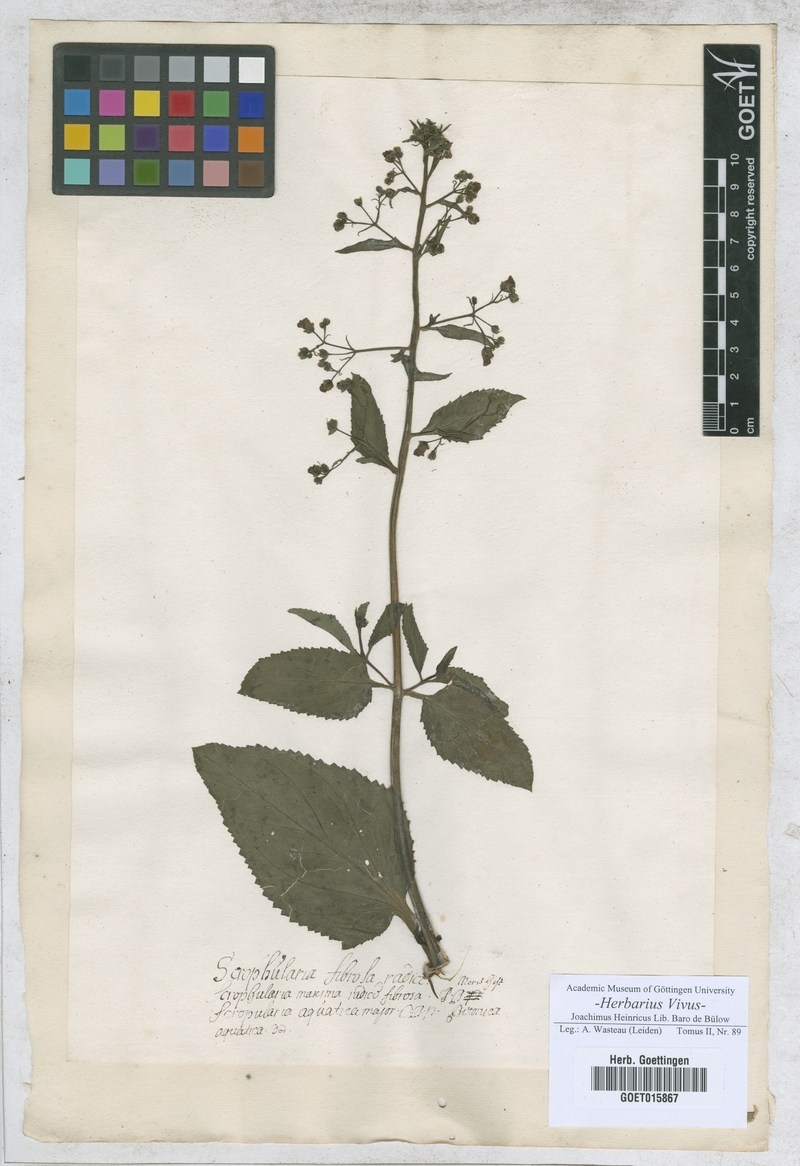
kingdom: Plantae
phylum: Tracheophyta
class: Magnoliopsida
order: Lamiales
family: Scrophulariaceae
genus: Scrophularia
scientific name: Scrophularia umbrosa
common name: Green figwort
